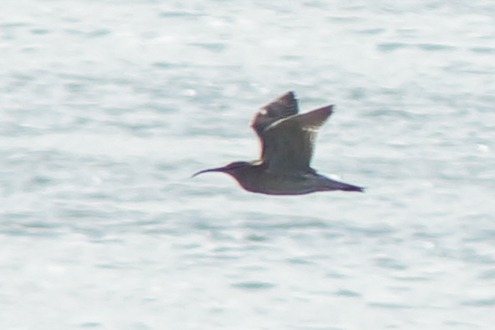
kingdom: Animalia
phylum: Chordata
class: Aves
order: Charadriiformes
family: Scolopacidae
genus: Numenius
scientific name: Numenius phaeopus
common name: Småspove
